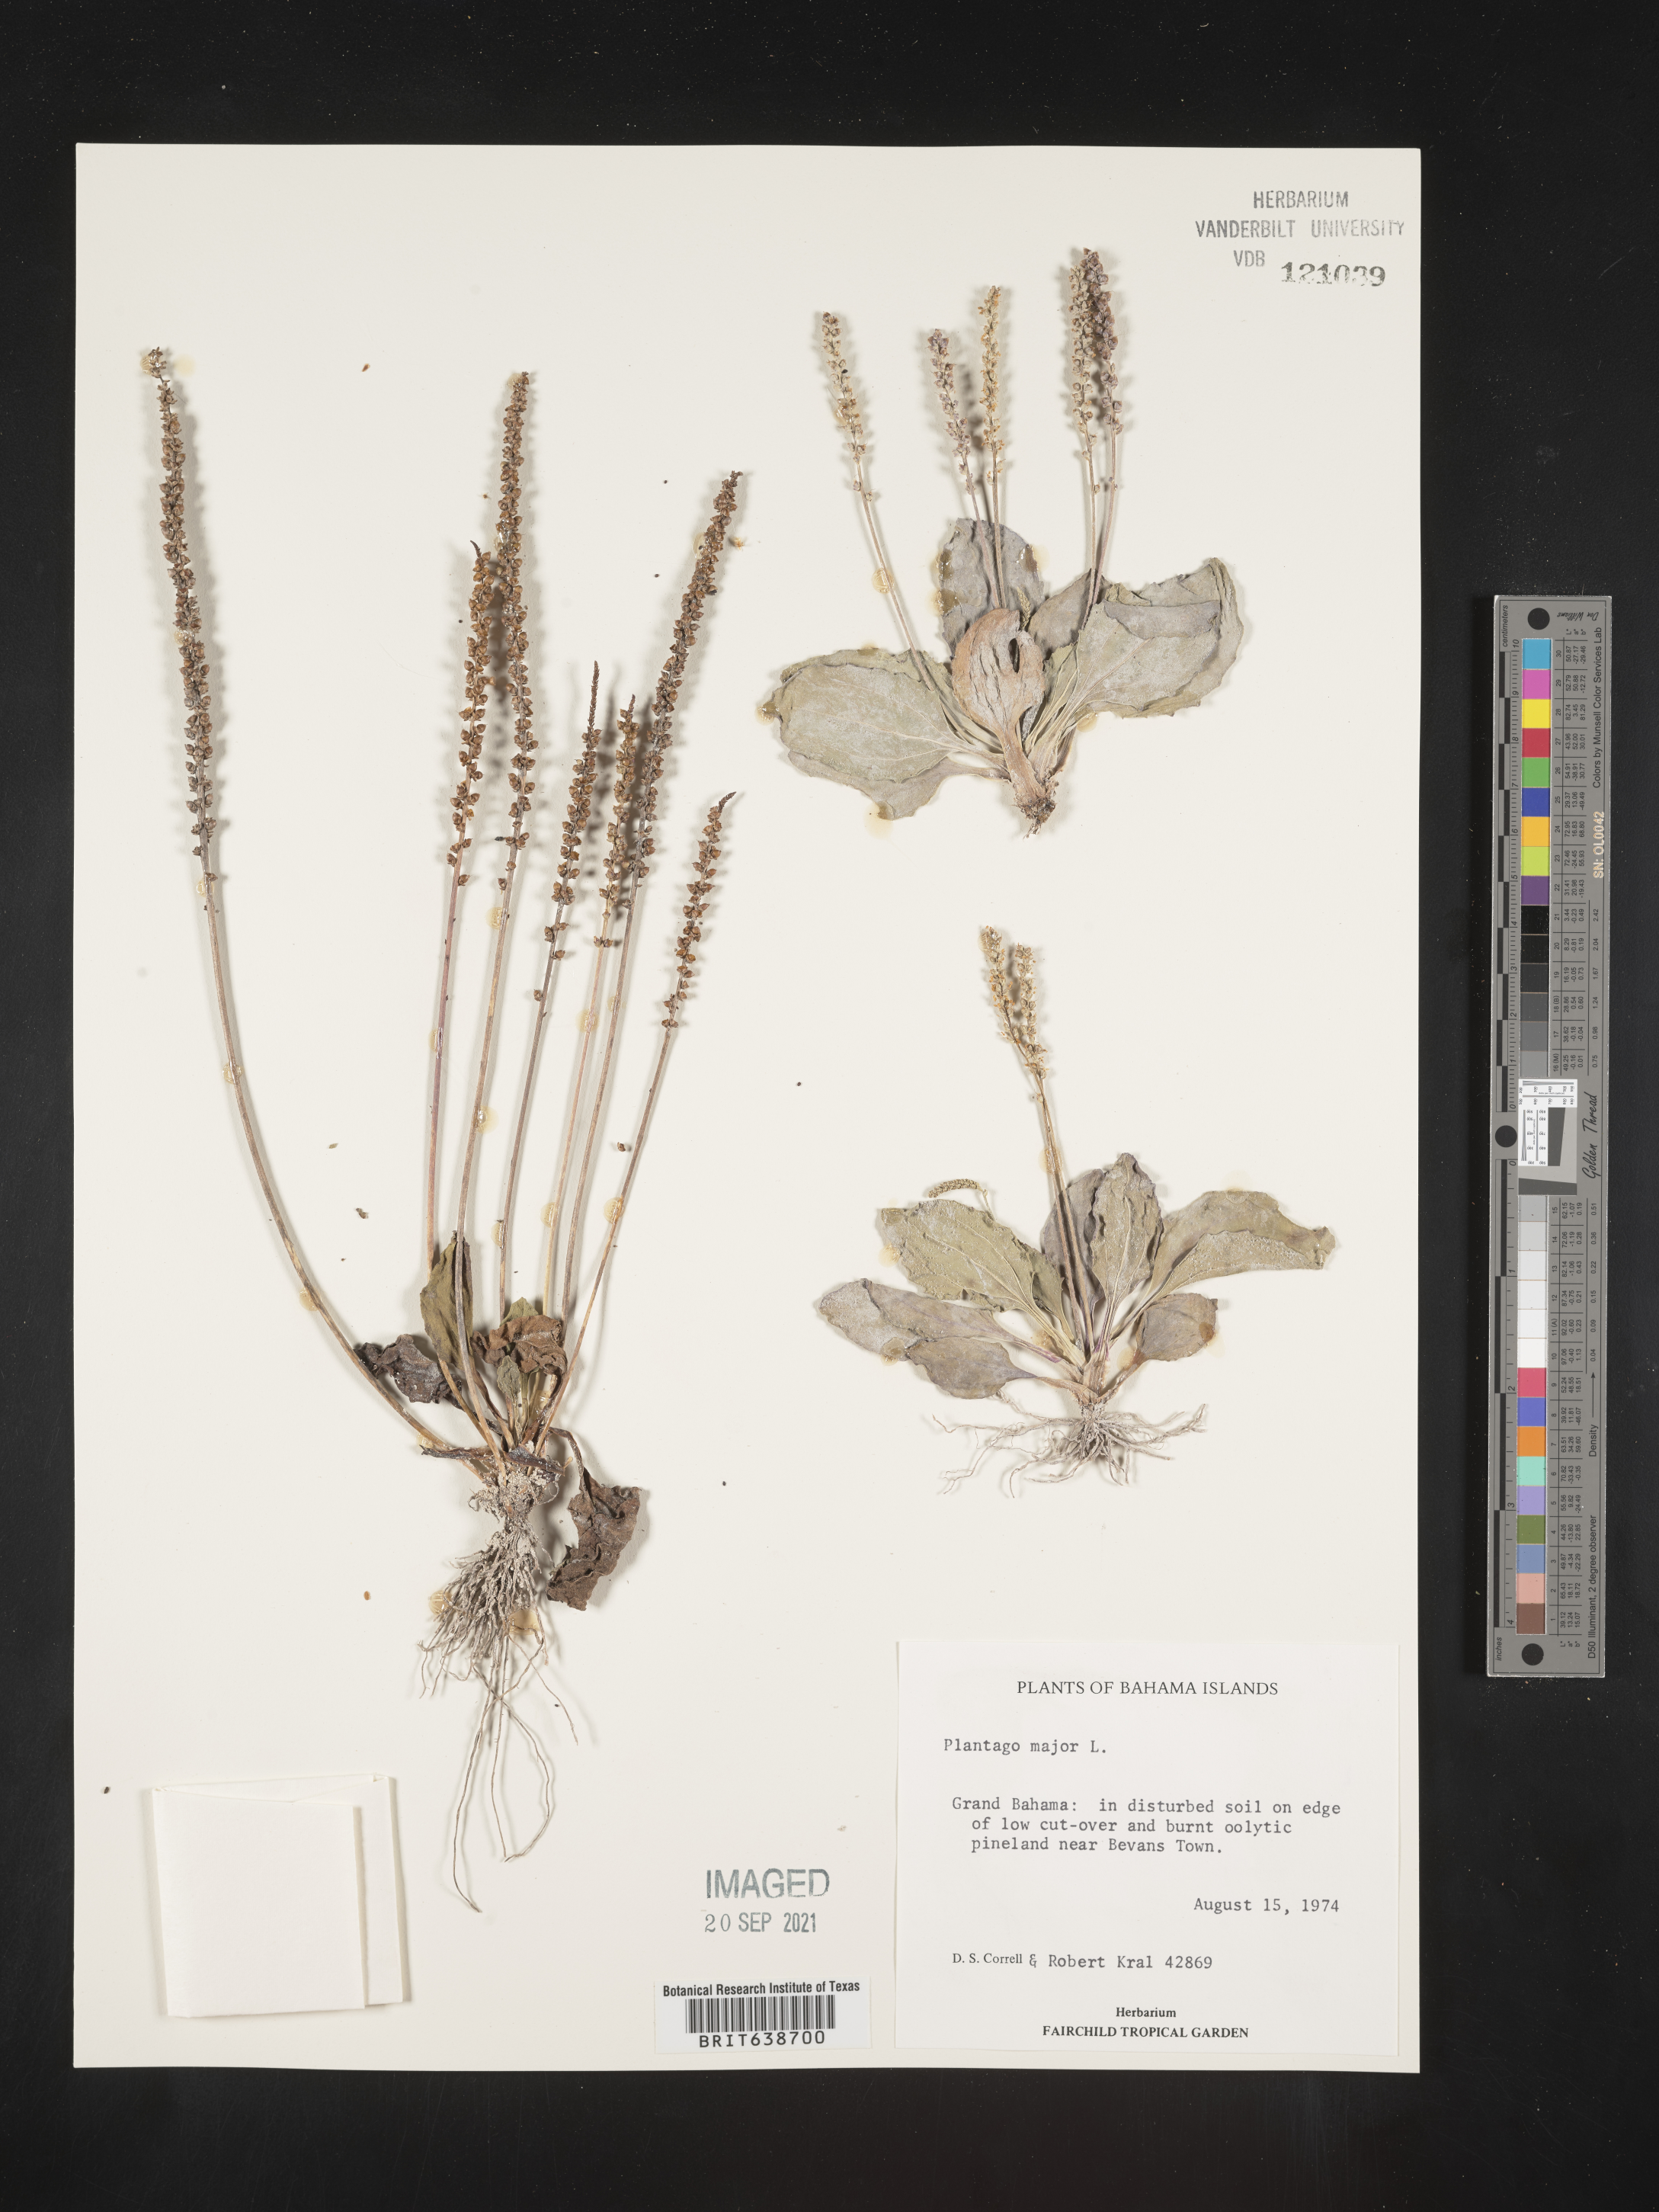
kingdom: Plantae
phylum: Tracheophyta
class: Magnoliopsida
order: Lamiales
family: Plantaginaceae
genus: Plantago
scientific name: Plantago
